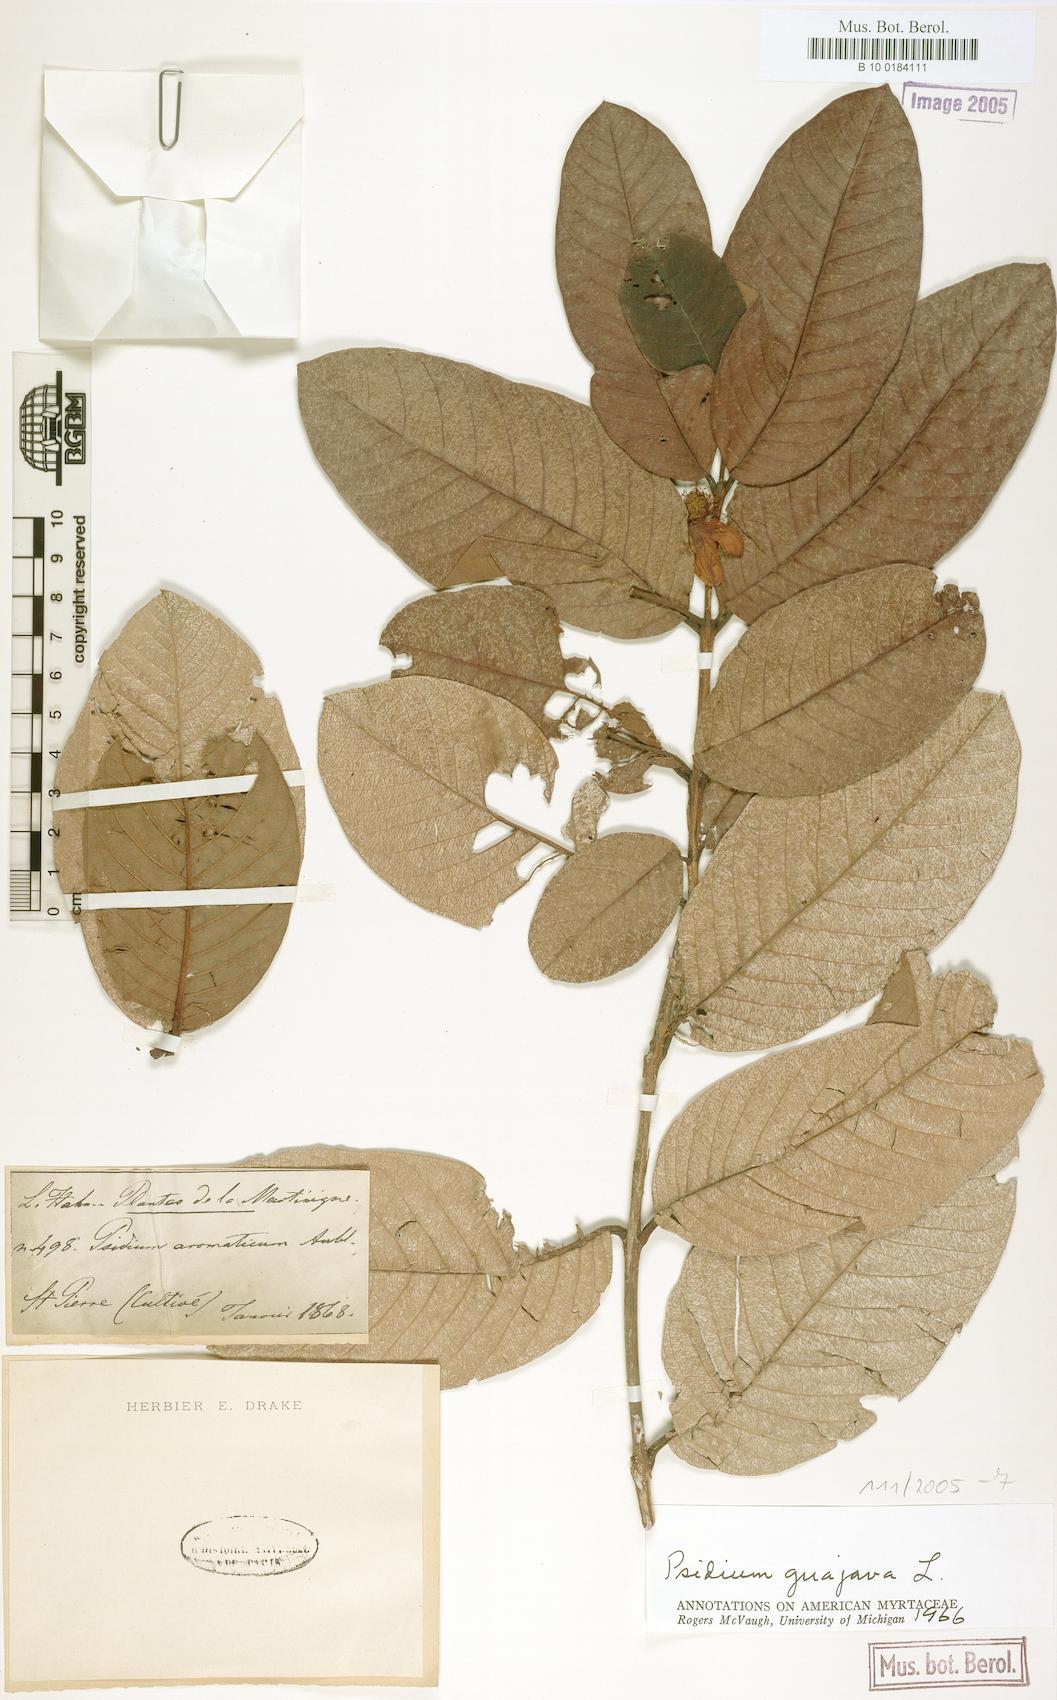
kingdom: Plantae
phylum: Tracheophyta
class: Magnoliopsida
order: Myrtales
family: Myrtaceae
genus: Psidium
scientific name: Psidium guajava
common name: Guava
